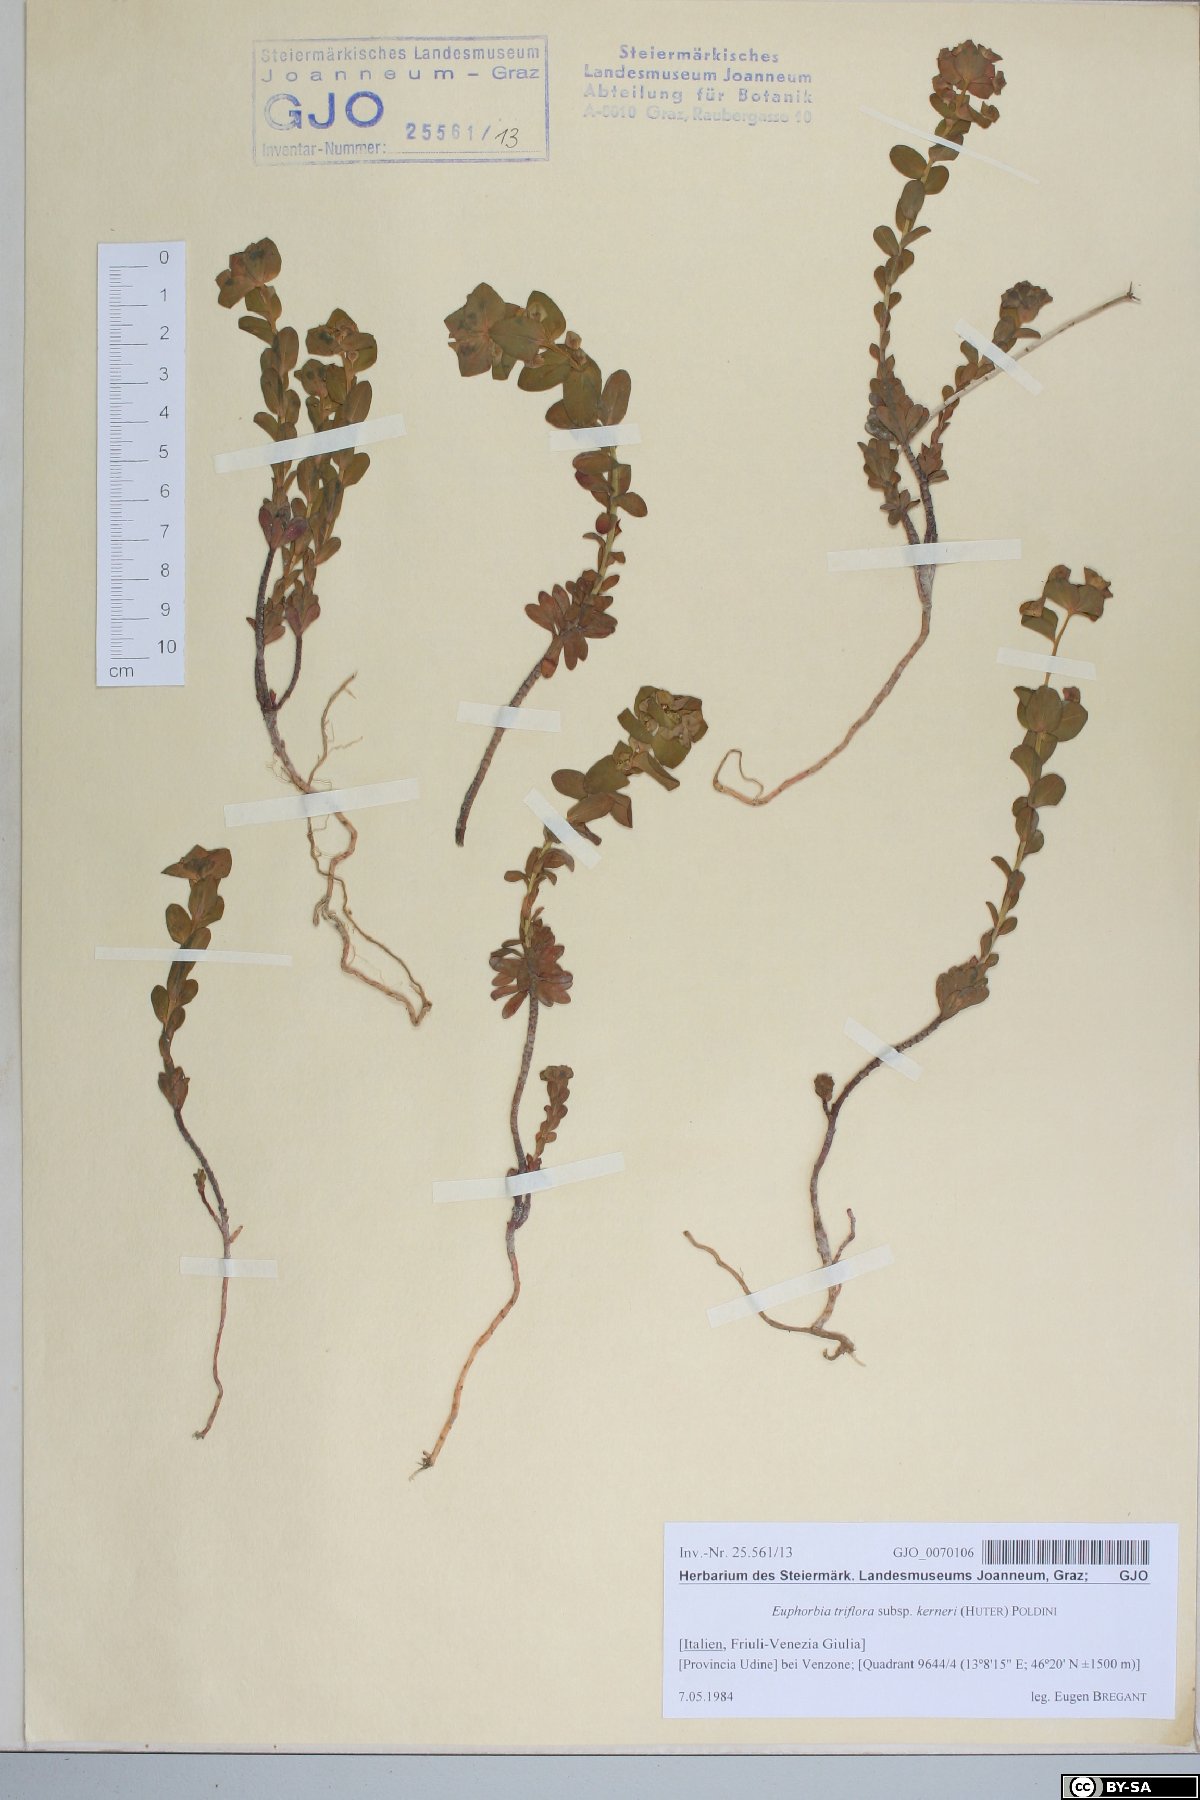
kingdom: Plantae
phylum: Tracheophyta
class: Magnoliopsida
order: Malpighiales
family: Euphorbiaceae
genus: Euphorbia
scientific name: Euphorbia kerneri
